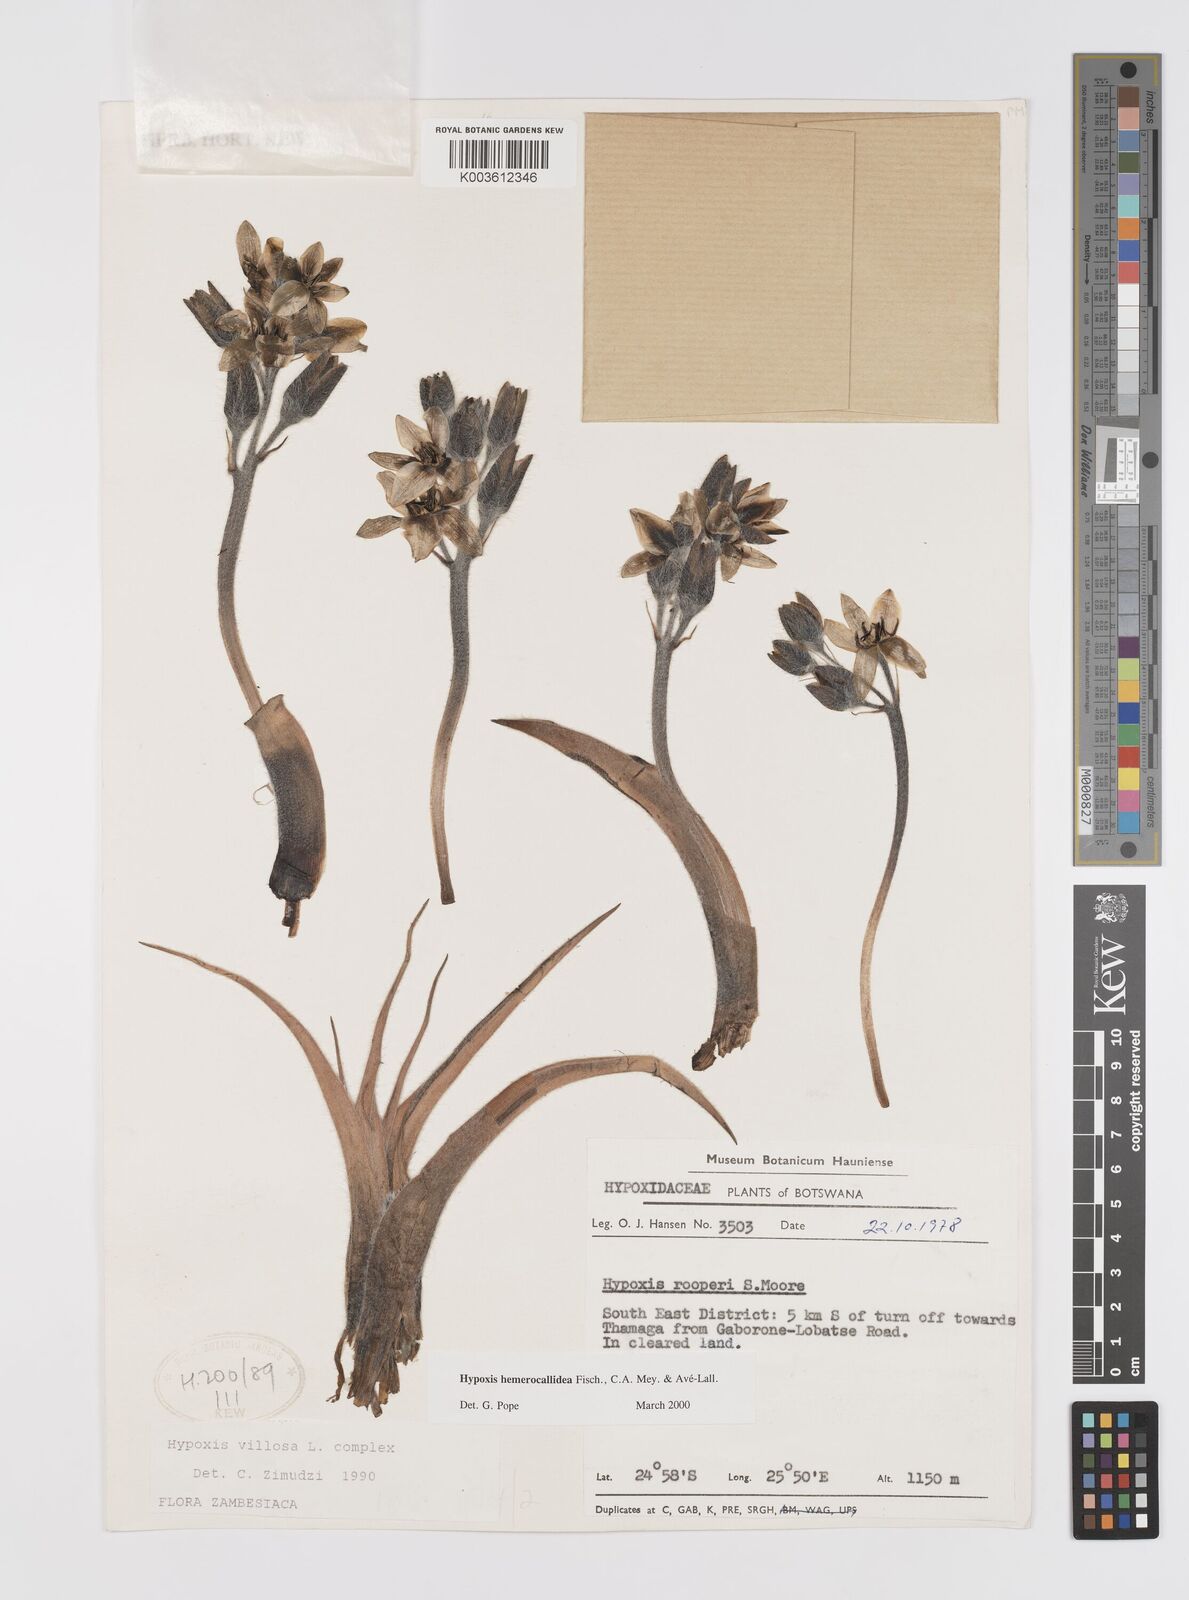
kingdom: Plantae
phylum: Tracheophyta
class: Liliopsida
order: Asparagales
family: Hypoxidaceae
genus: Hypoxis
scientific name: Hypoxis hemerocallidea
